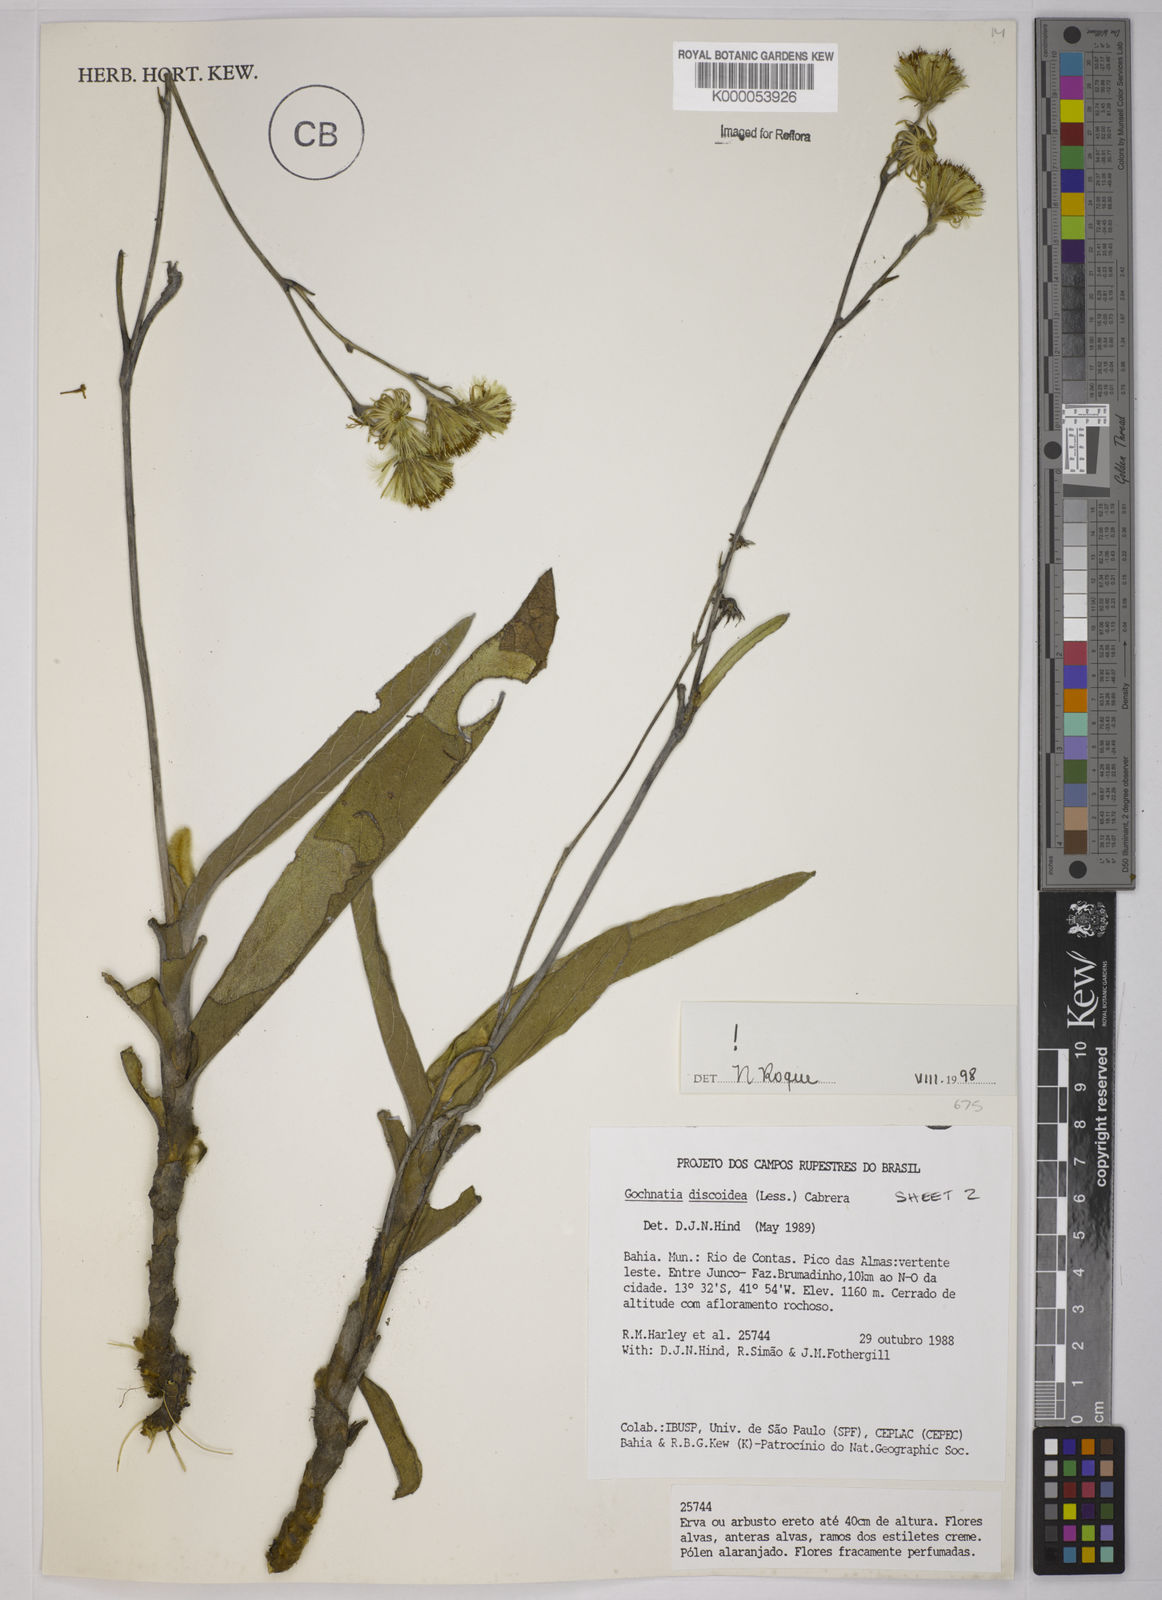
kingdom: Plantae
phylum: Tracheophyta
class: Magnoliopsida
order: Asterales
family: Asteraceae
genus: Richterago
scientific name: Richterago discoidea
